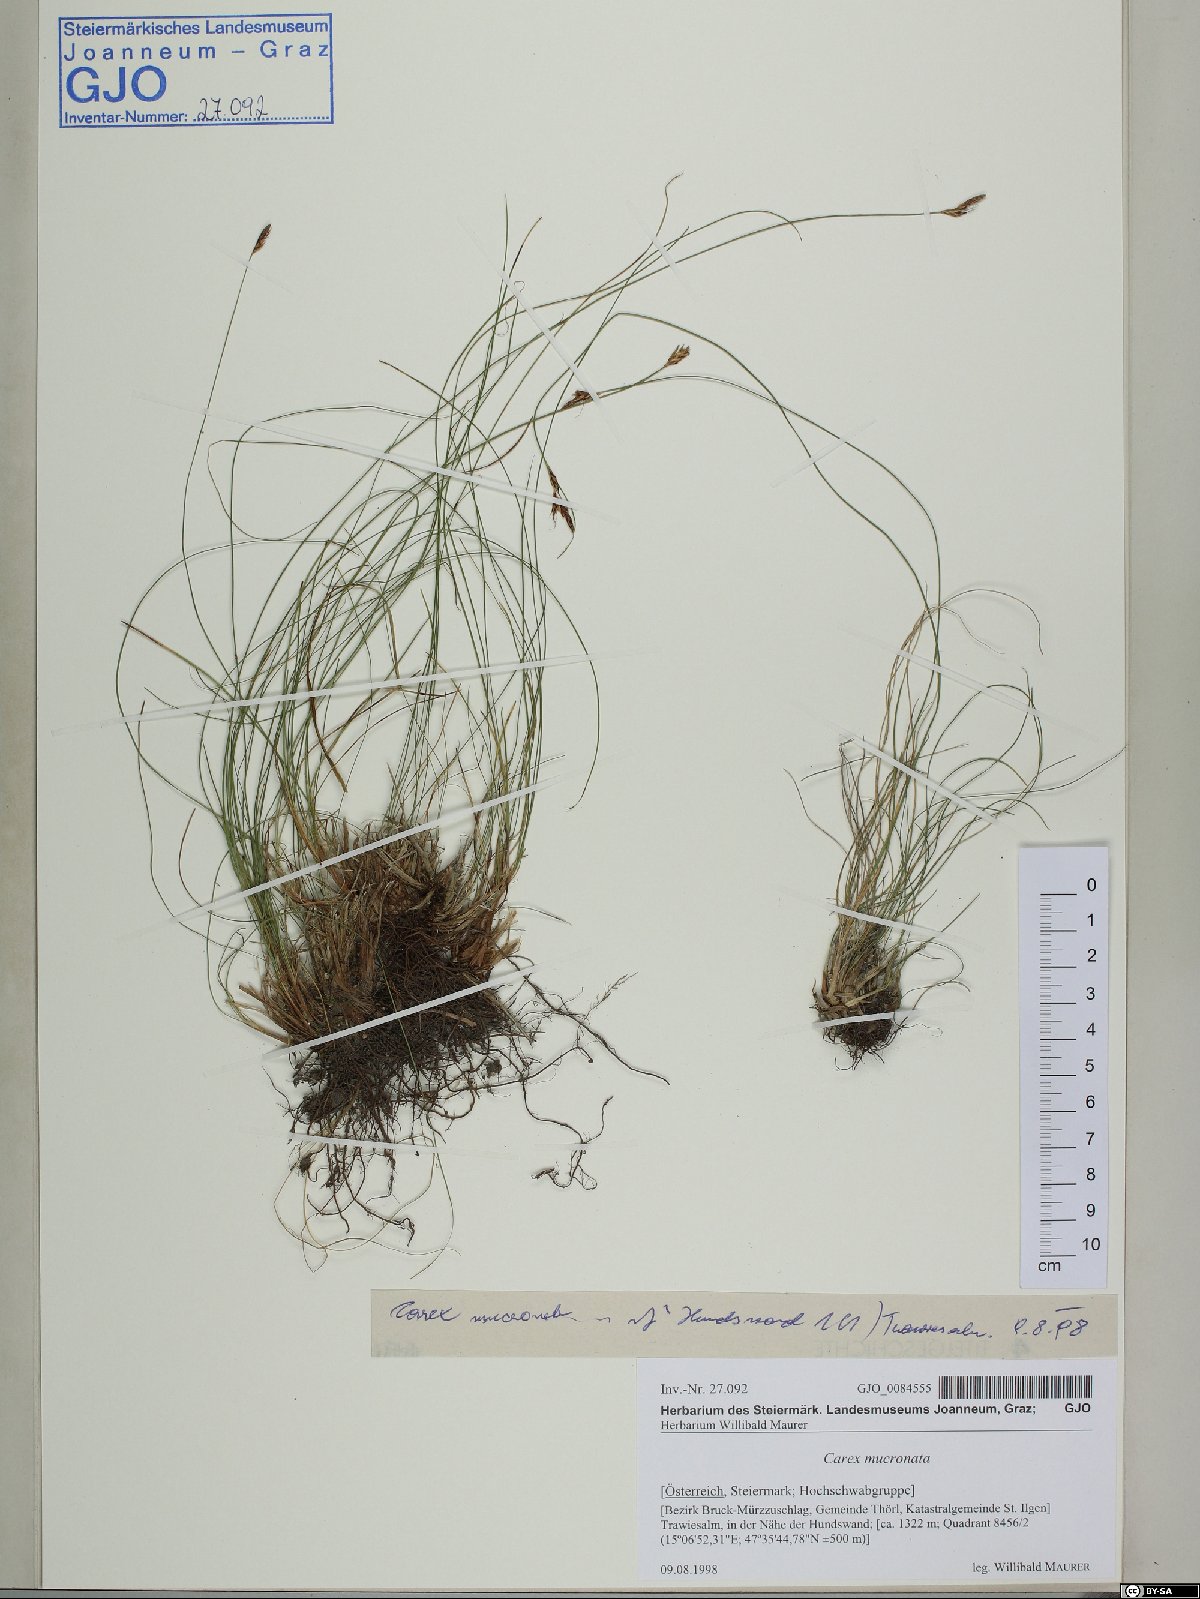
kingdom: Plantae
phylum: Tracheophyta
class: Liliopsida
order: Poales
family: Cyperaceae
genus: Carex
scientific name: Carex mucronata
